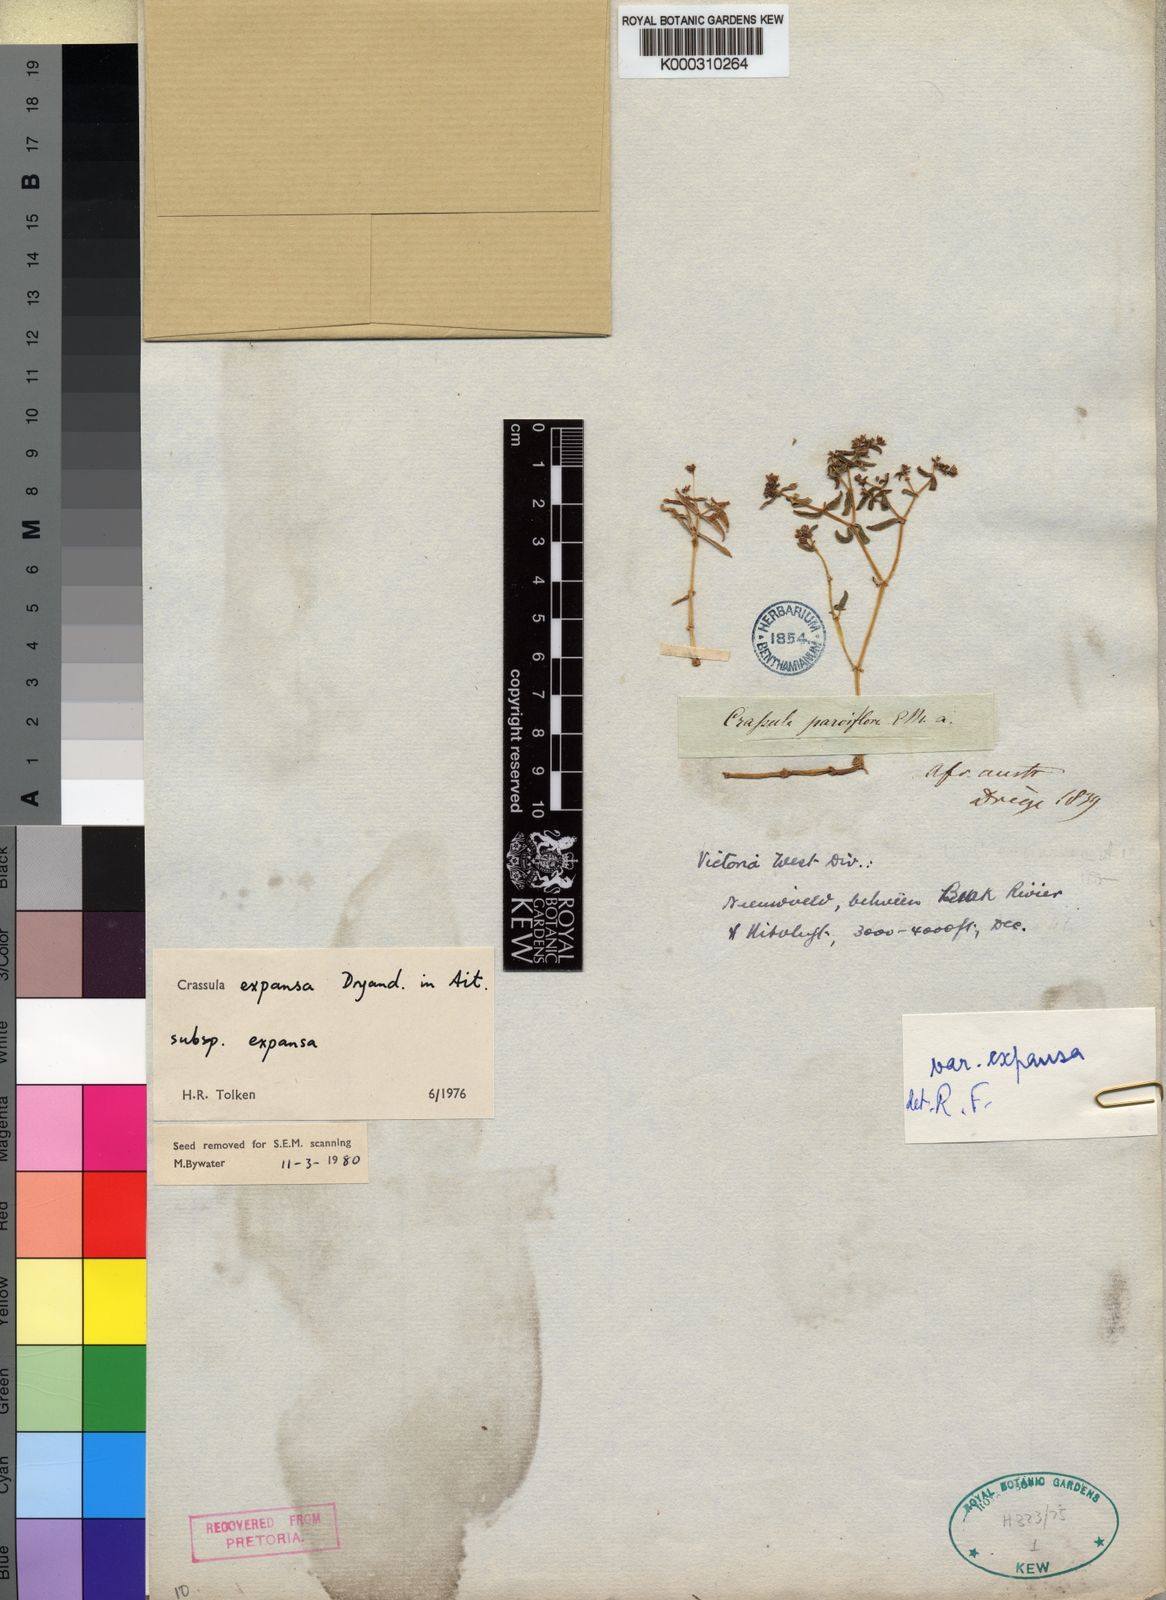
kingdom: Plantae
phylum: Tracheophyta
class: Magnoliopsida
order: Saxifragales
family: Crassulaceae
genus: Crassula
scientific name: Crassula
